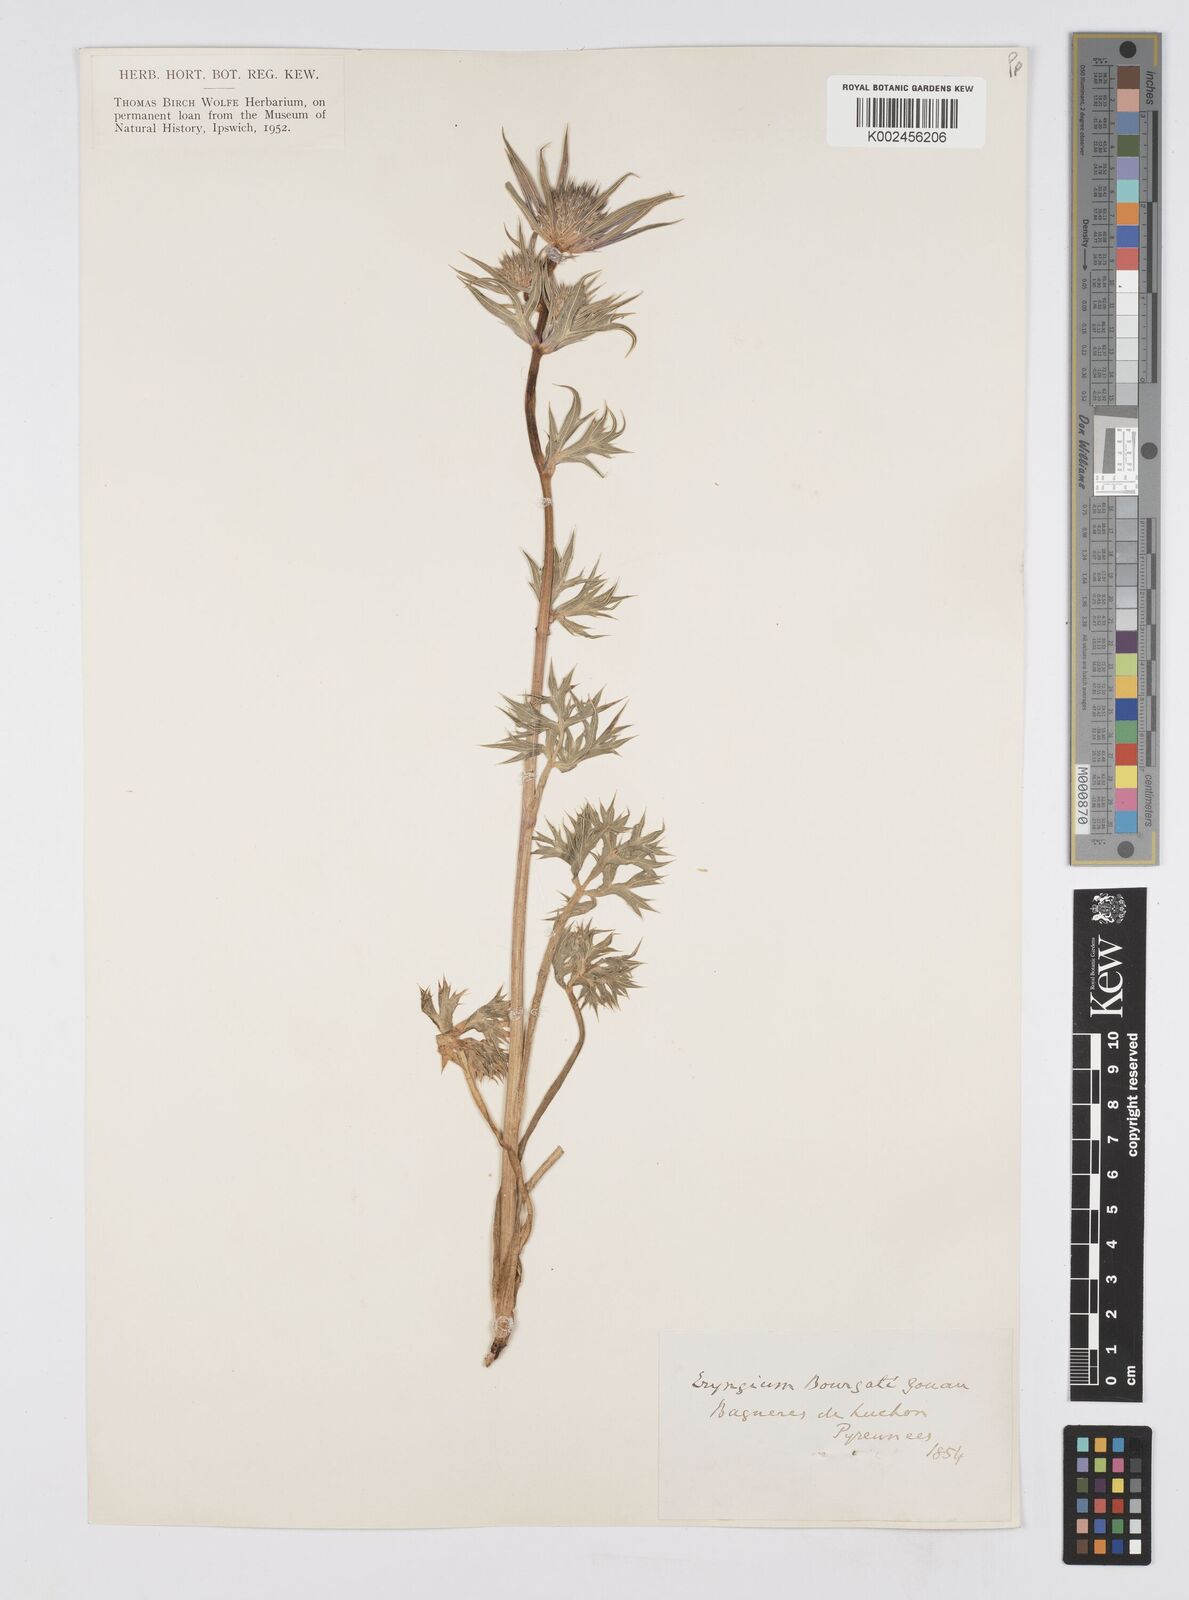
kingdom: Plantae
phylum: Tracheophyta
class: Magnoliopsida
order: Apiales
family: Apiaceae
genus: Eryngium
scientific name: Eryngium bourgatii
